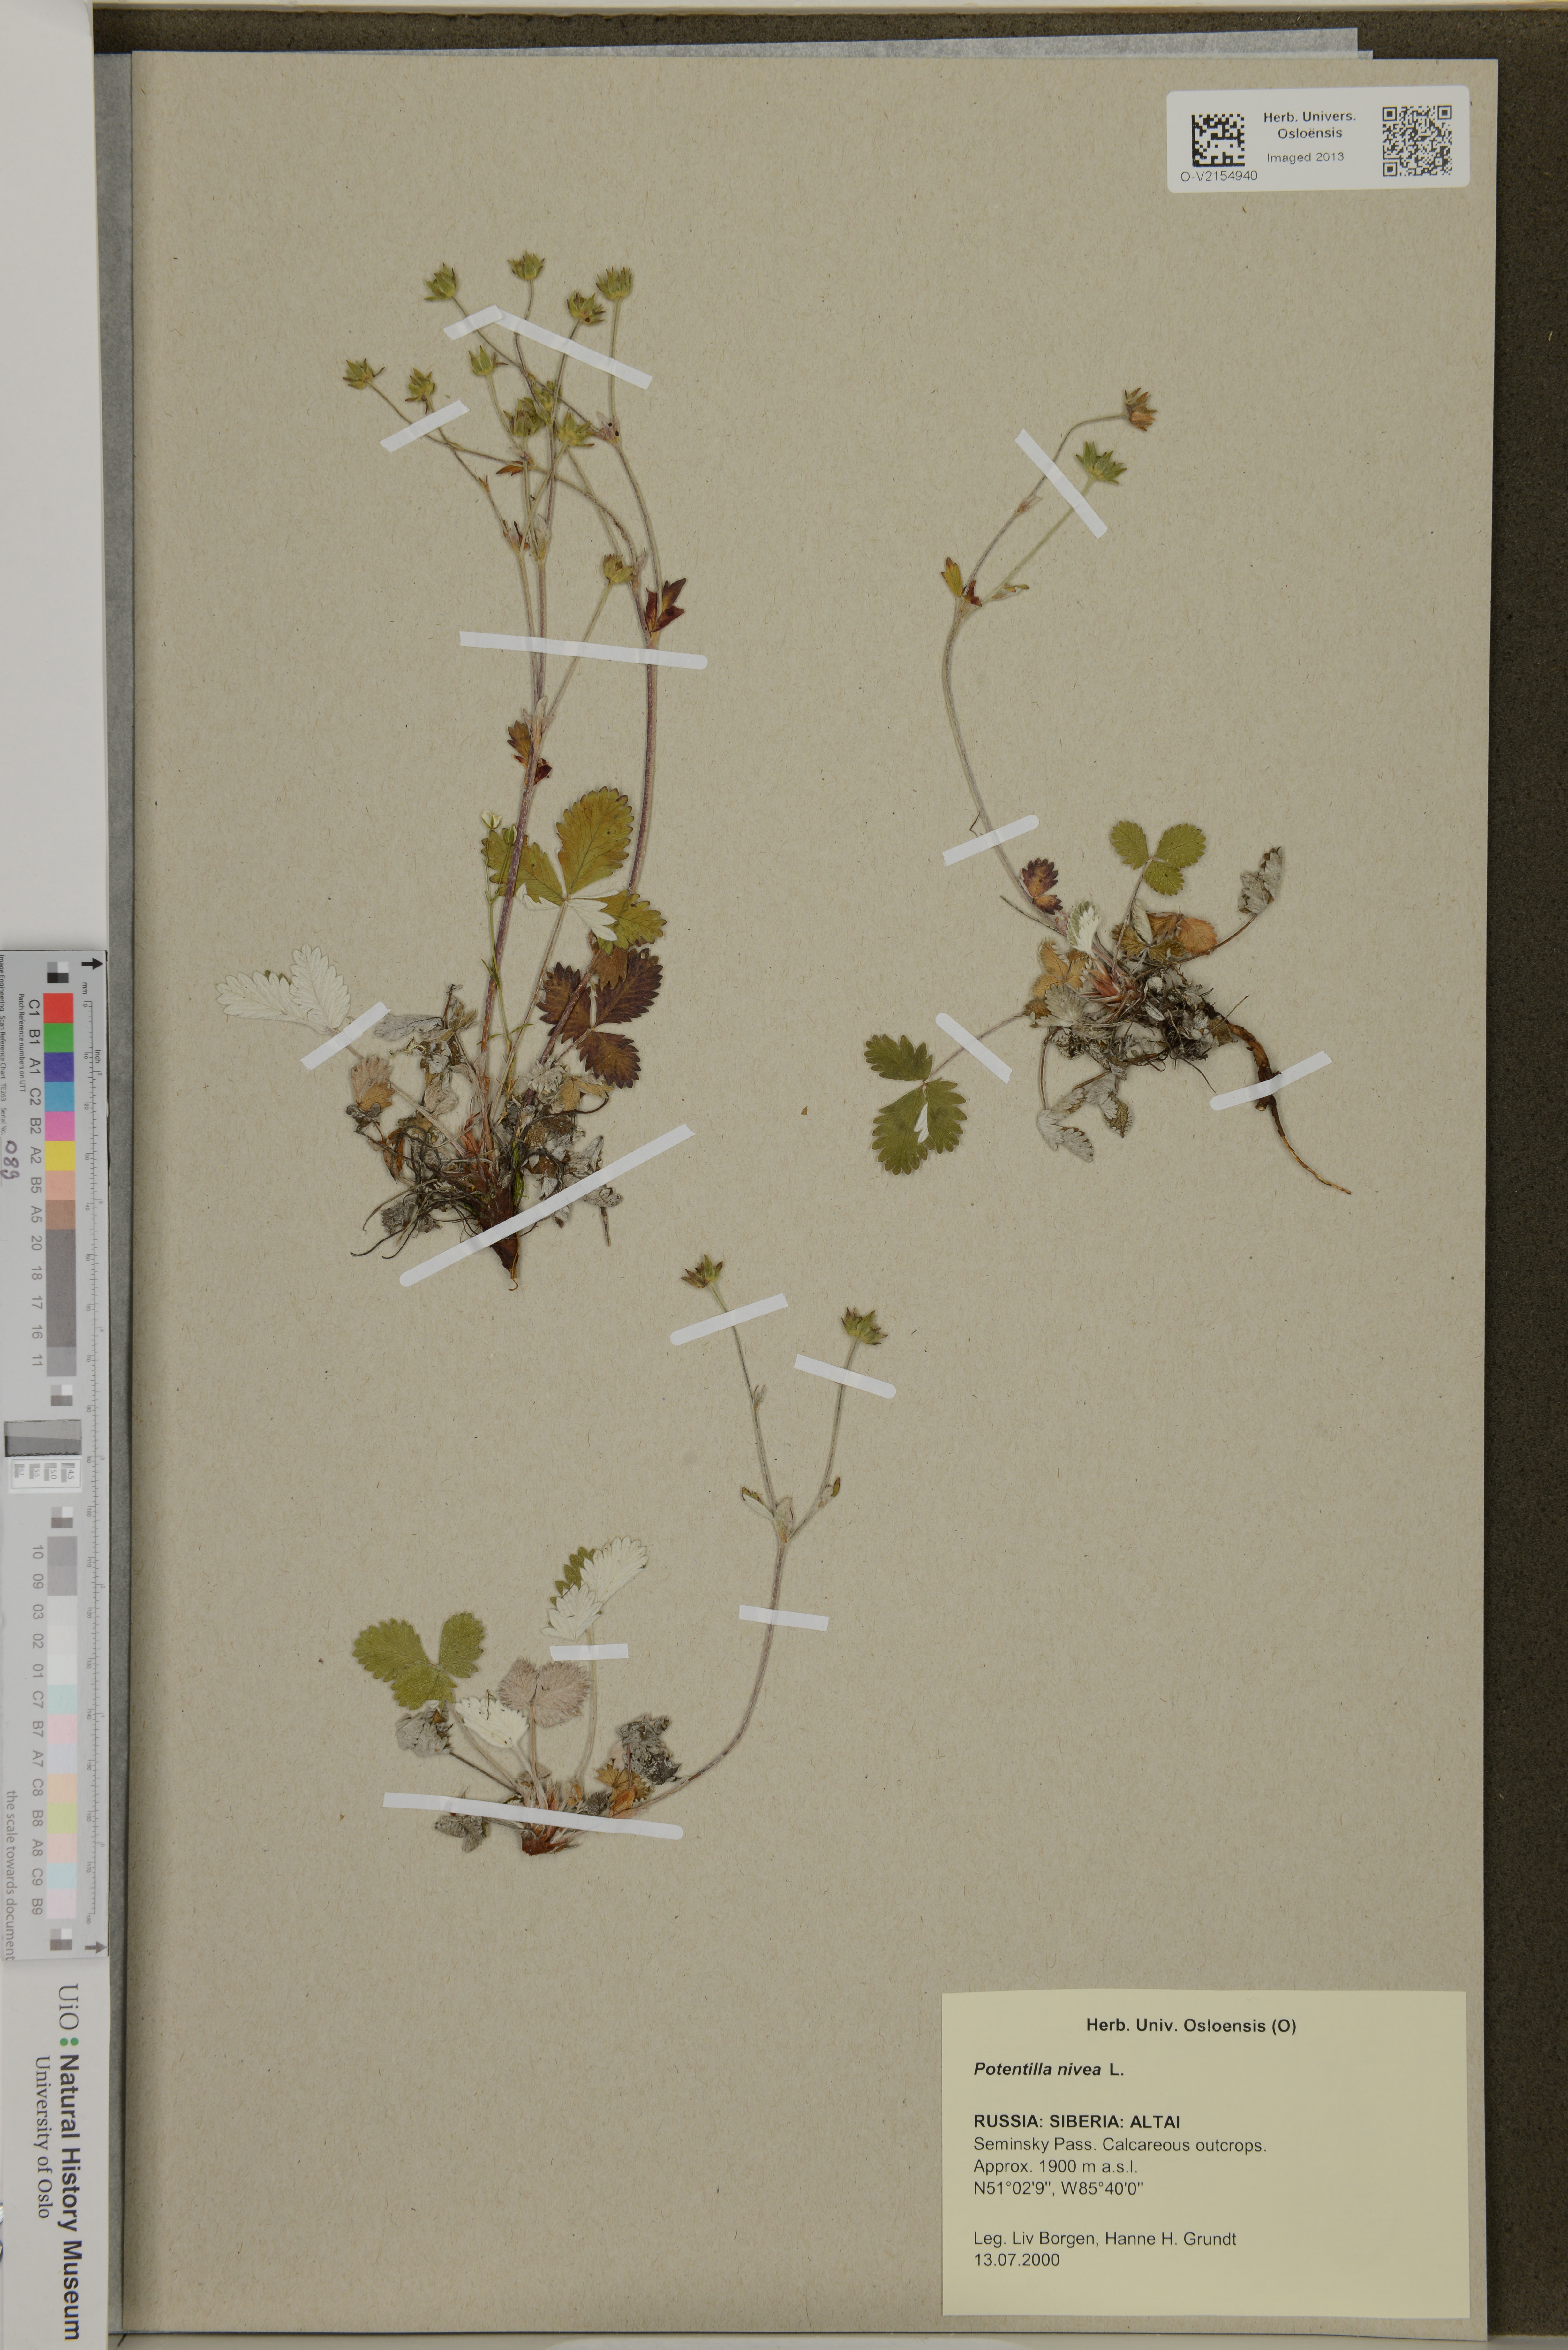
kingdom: Plantae
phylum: Tracheophyta
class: Magnoliopsida
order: Rosales
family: Rosaceae
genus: Potentilla
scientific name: Potentilla nivea
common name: Snow cinquefoil
